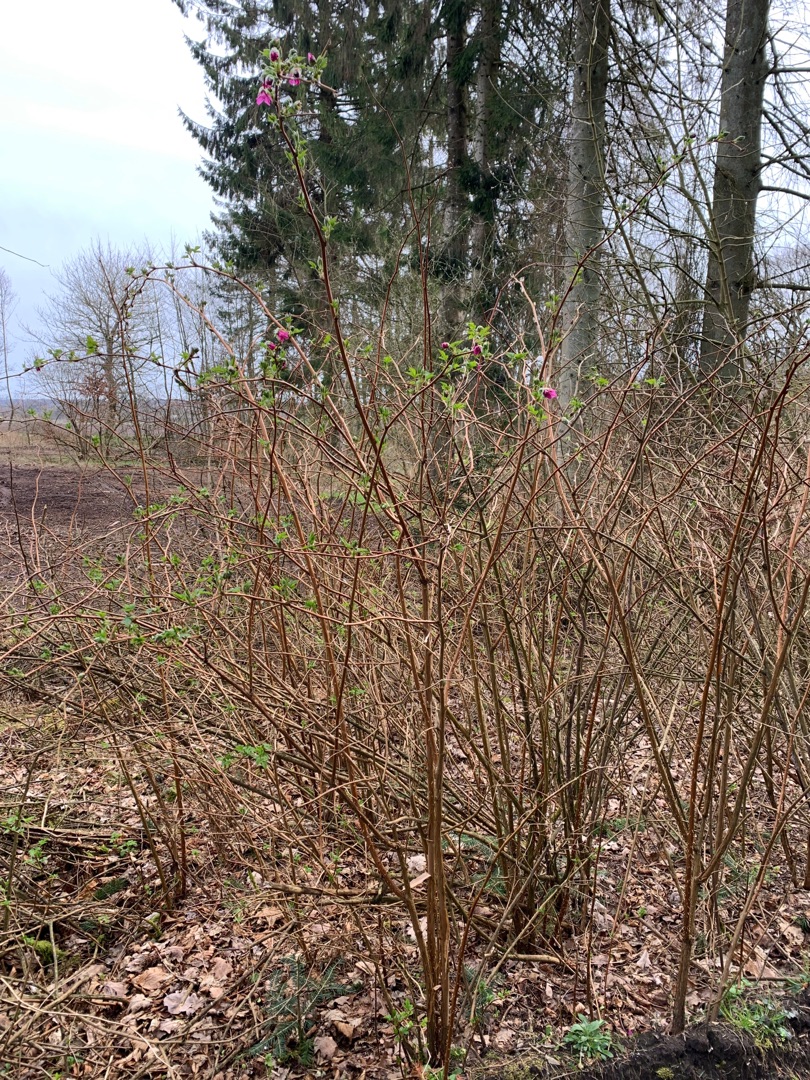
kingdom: Plantae
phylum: Tracheophyta
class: Magnoliopsida
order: Rosales
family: Rosaceae
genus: Rubus
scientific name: Rubus spectabilis
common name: Laksebær
